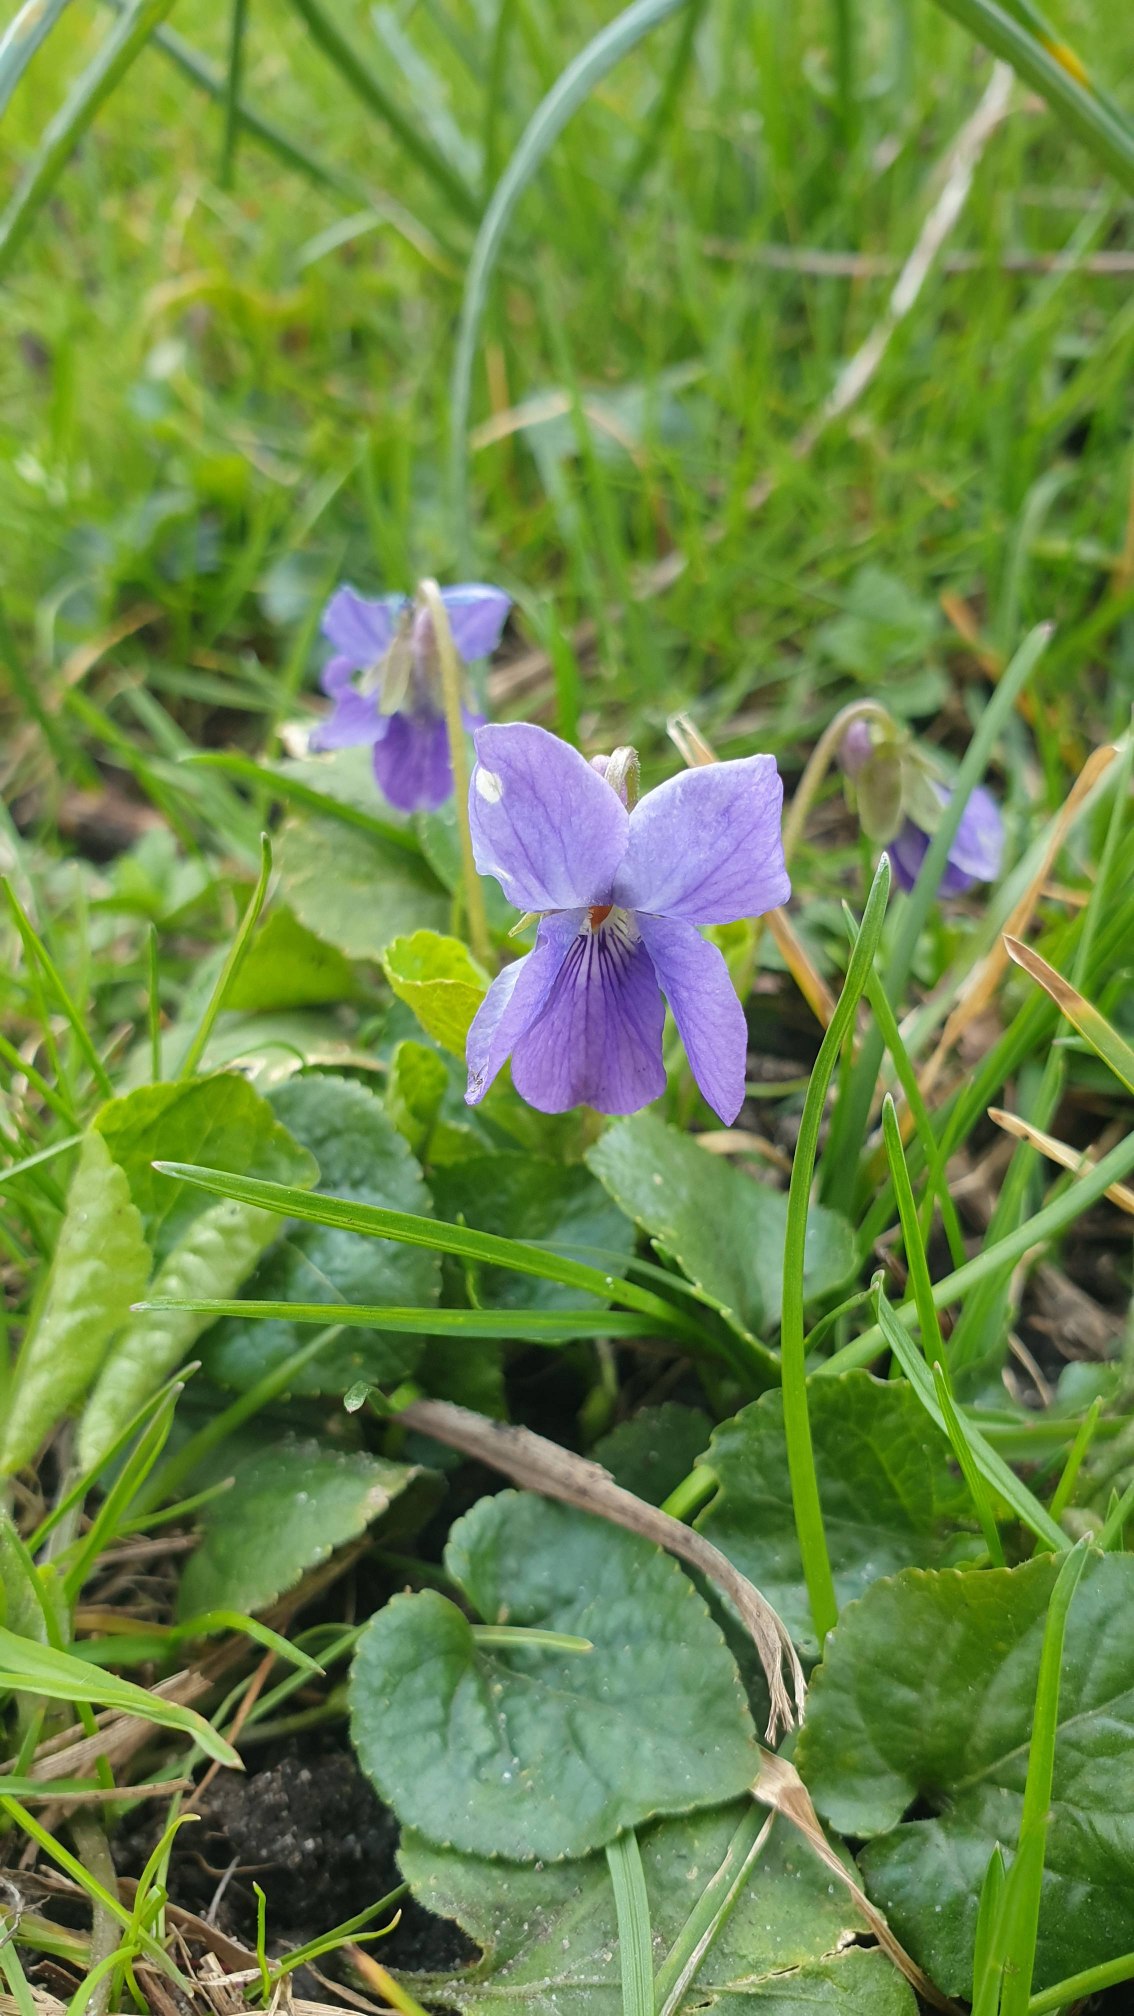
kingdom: Plantae
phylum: Tracheophyta
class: Magnoliopsida
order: Malpighiales
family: Violaceae
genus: Viola
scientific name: Viola odorata
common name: Marts-viol
